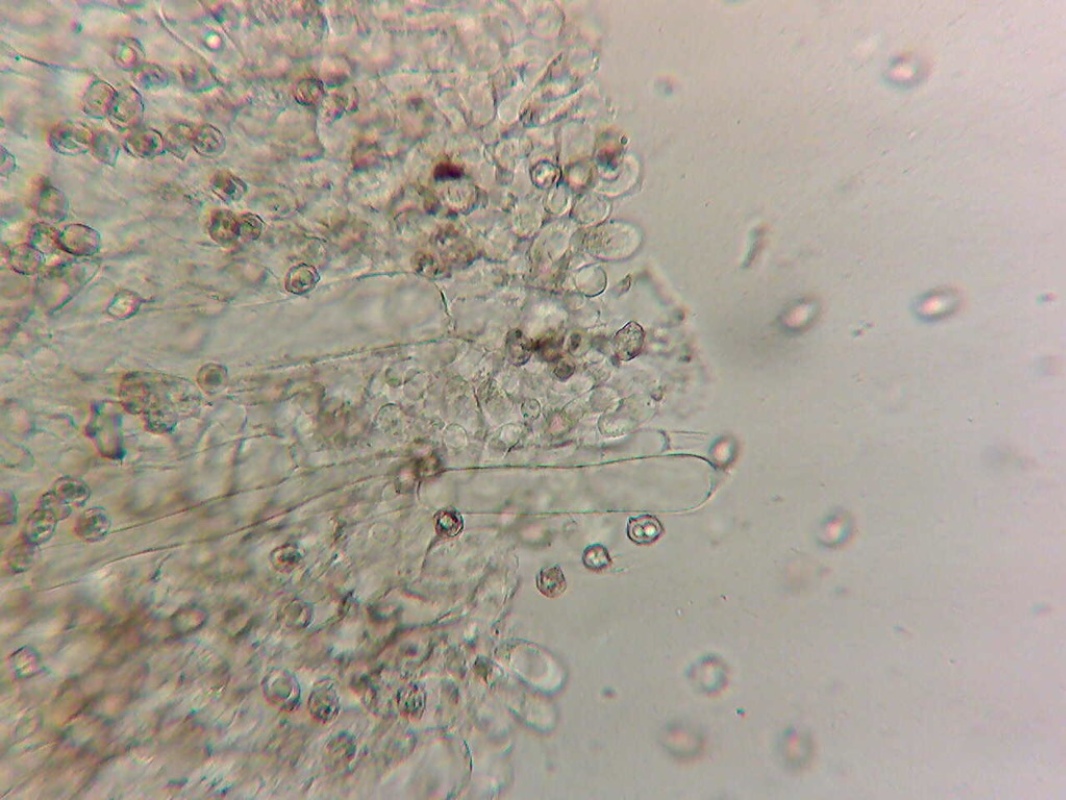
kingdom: Fungi
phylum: Basidiomycota
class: Agaricomycetes
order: Agaricales
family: Entolomataceae
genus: Entoloma
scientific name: Entoloma neglectum
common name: bleg rødblad
